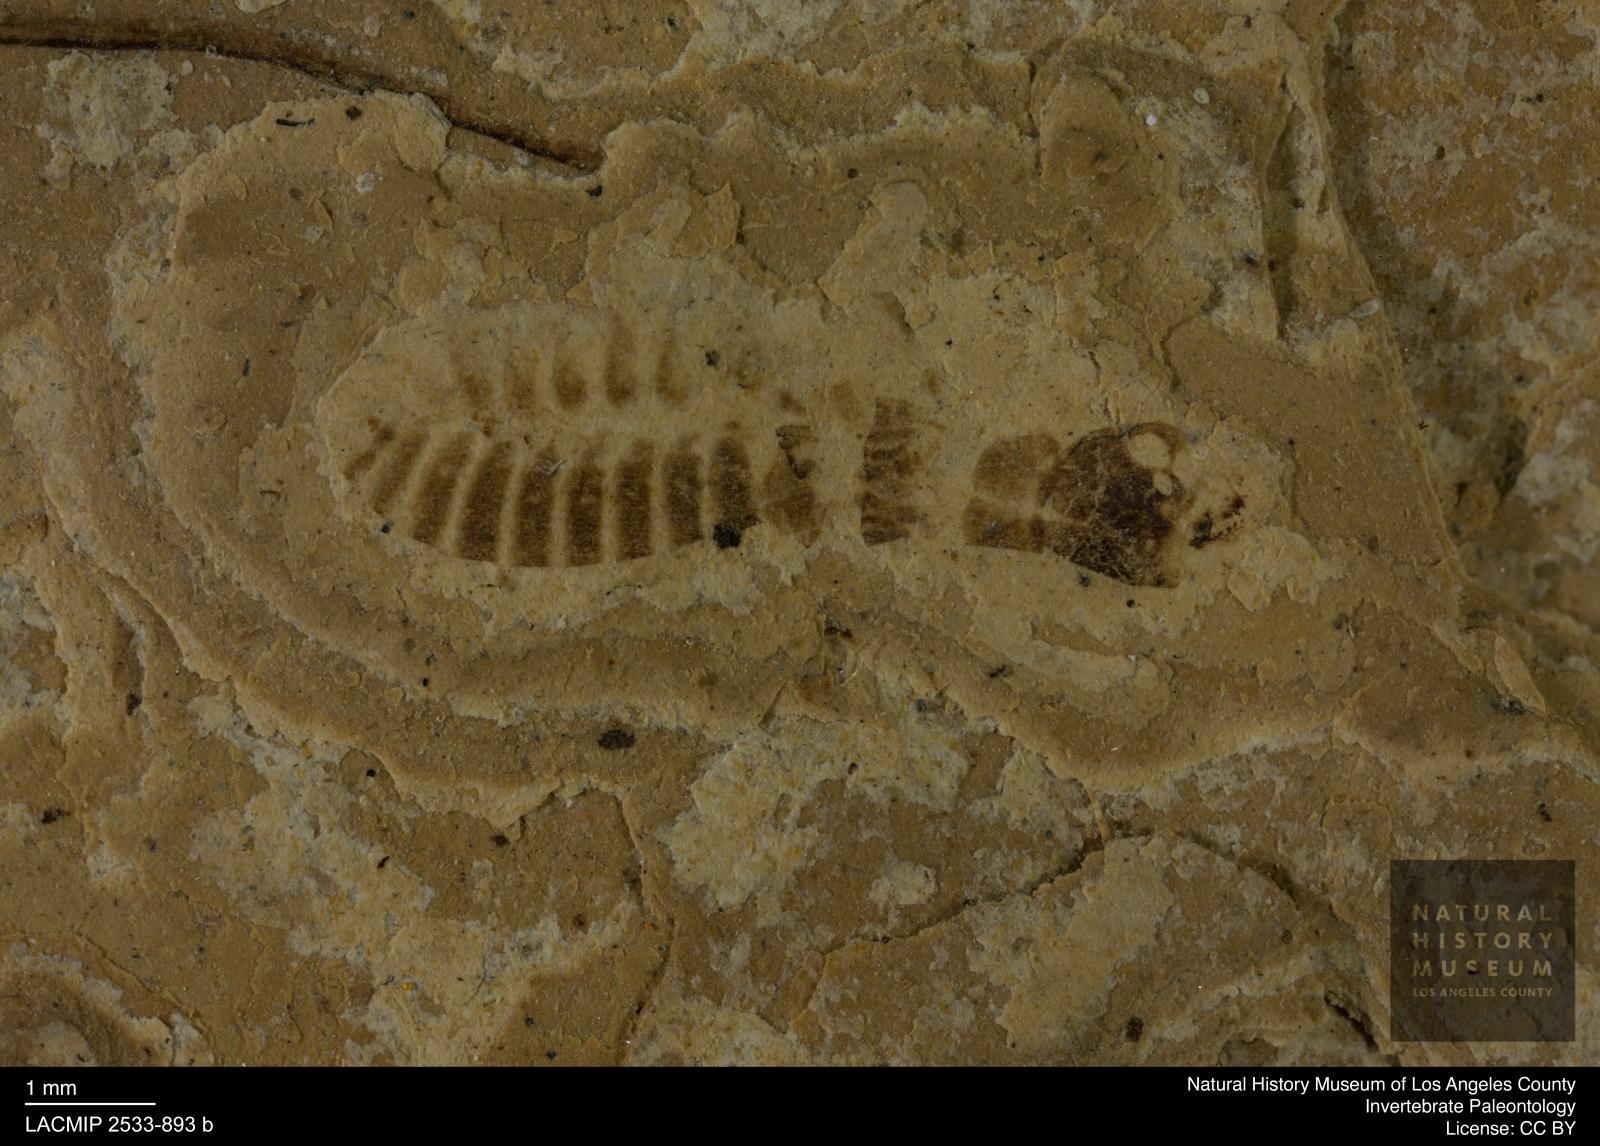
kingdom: Animalia
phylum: Arthropoda
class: Insecta
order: Blattodea
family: Rhinotermitidae
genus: Reticulitermes
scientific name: Reticulitermes holmgreni
